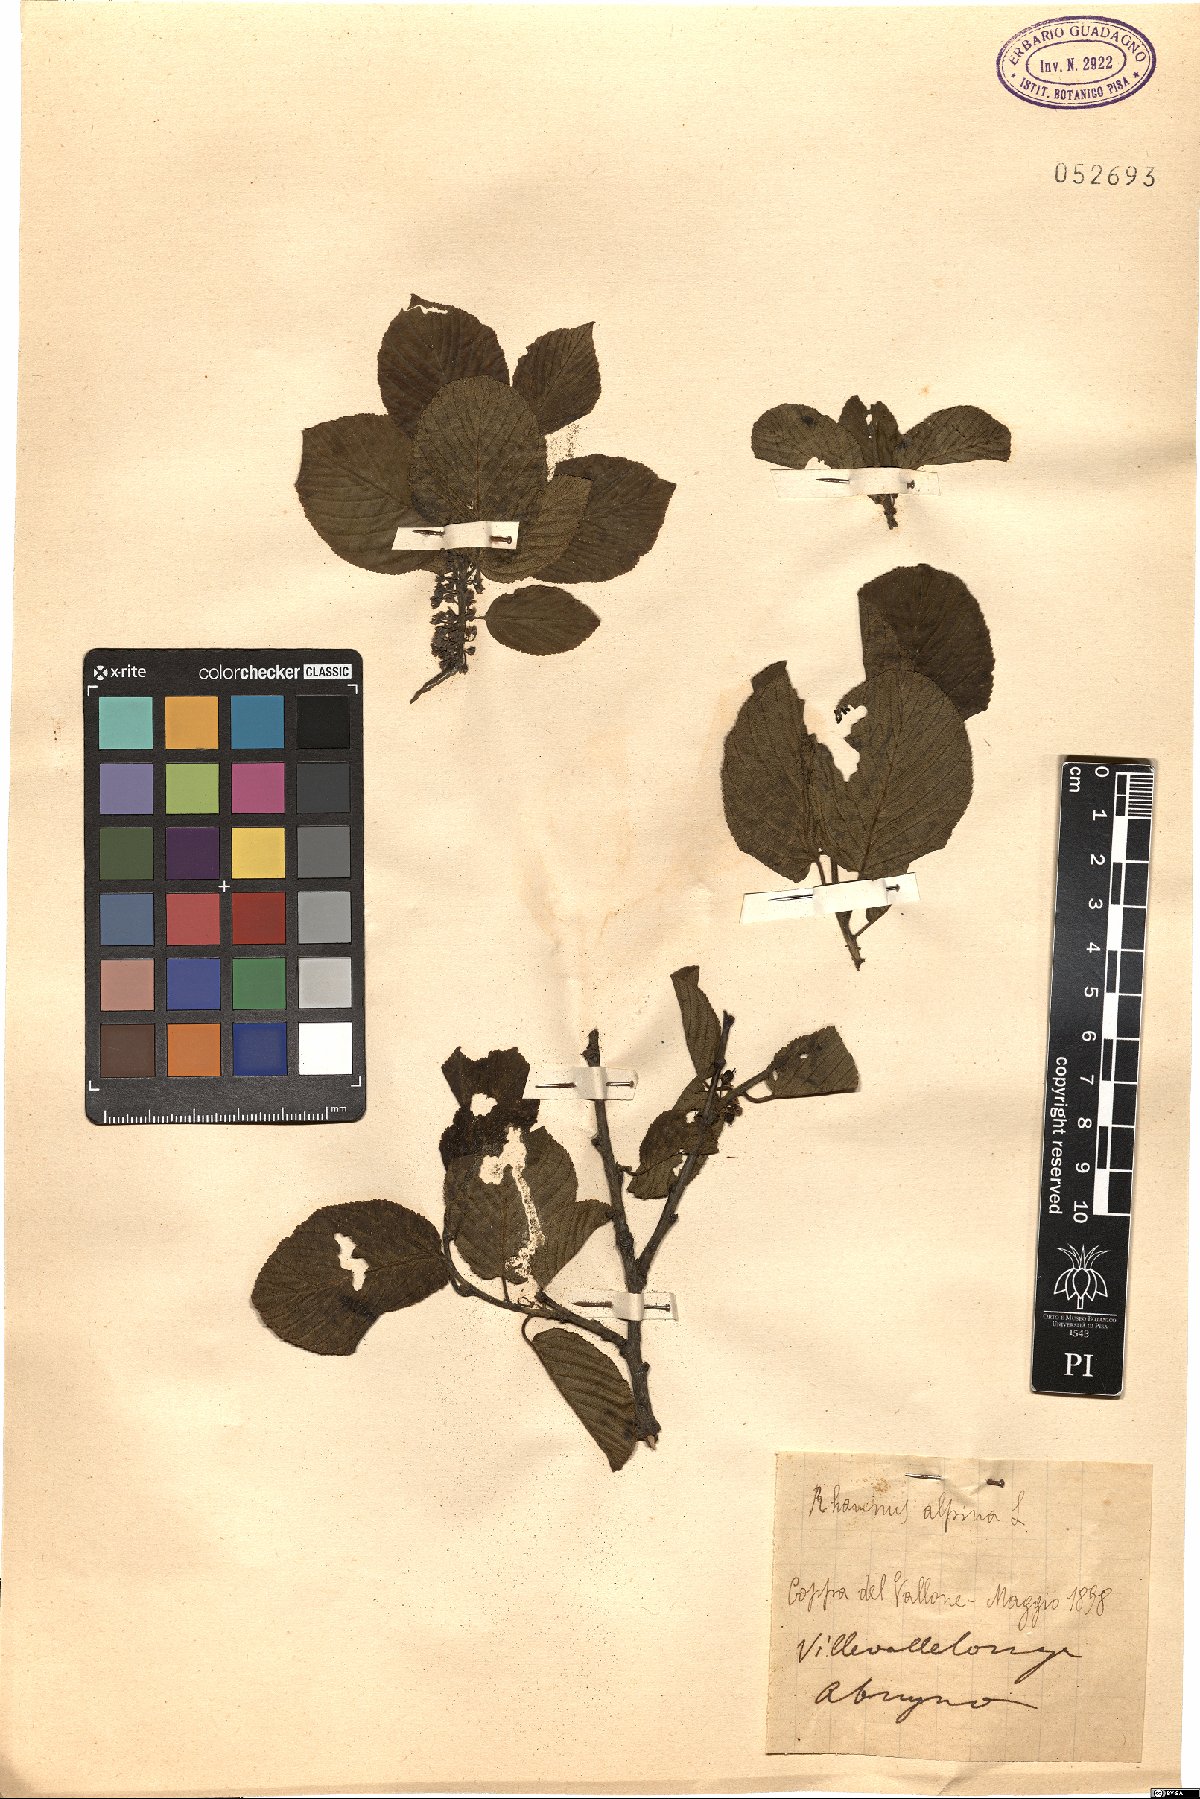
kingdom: Plantae
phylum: Tracheophyta
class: Magnoliopsida
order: Rosales
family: Rhamnaceae
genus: Atadinus
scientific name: Atadinus alpinus
